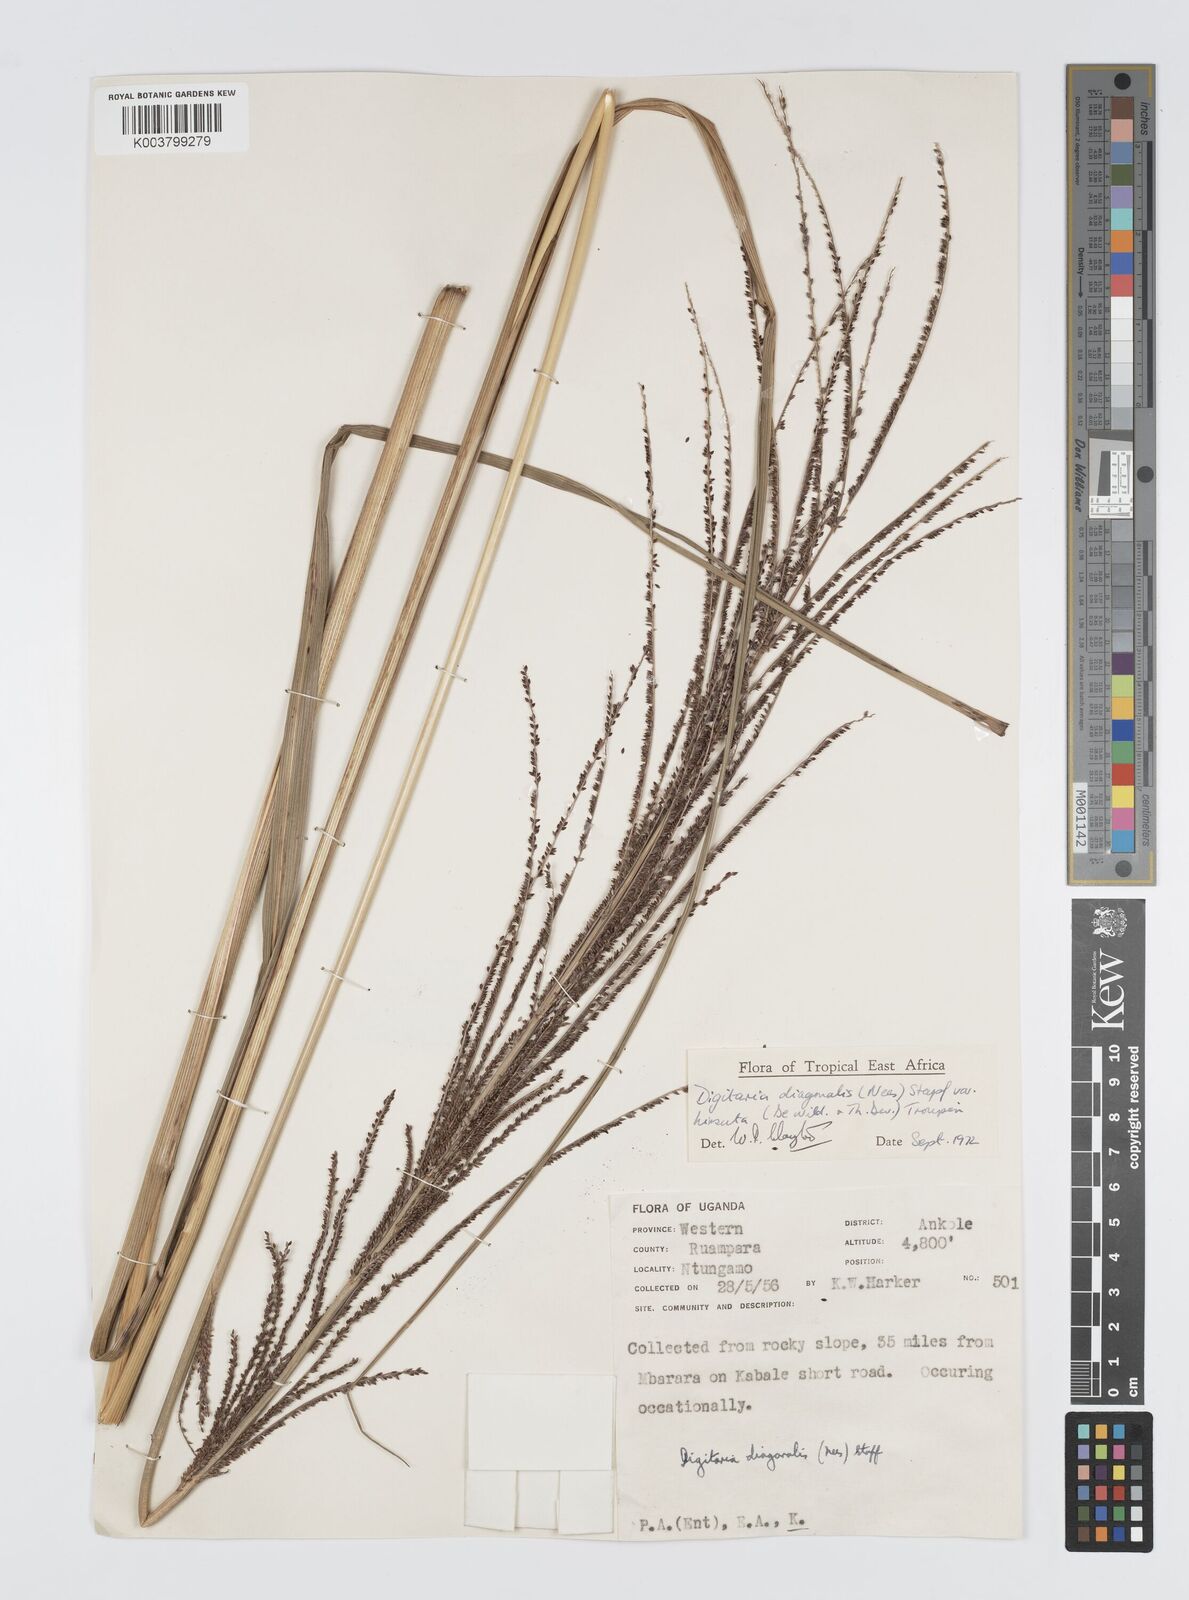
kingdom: Plantae
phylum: Tracheophyta
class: Liliopsida
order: Poales
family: Poaceae
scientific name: Poaceae
